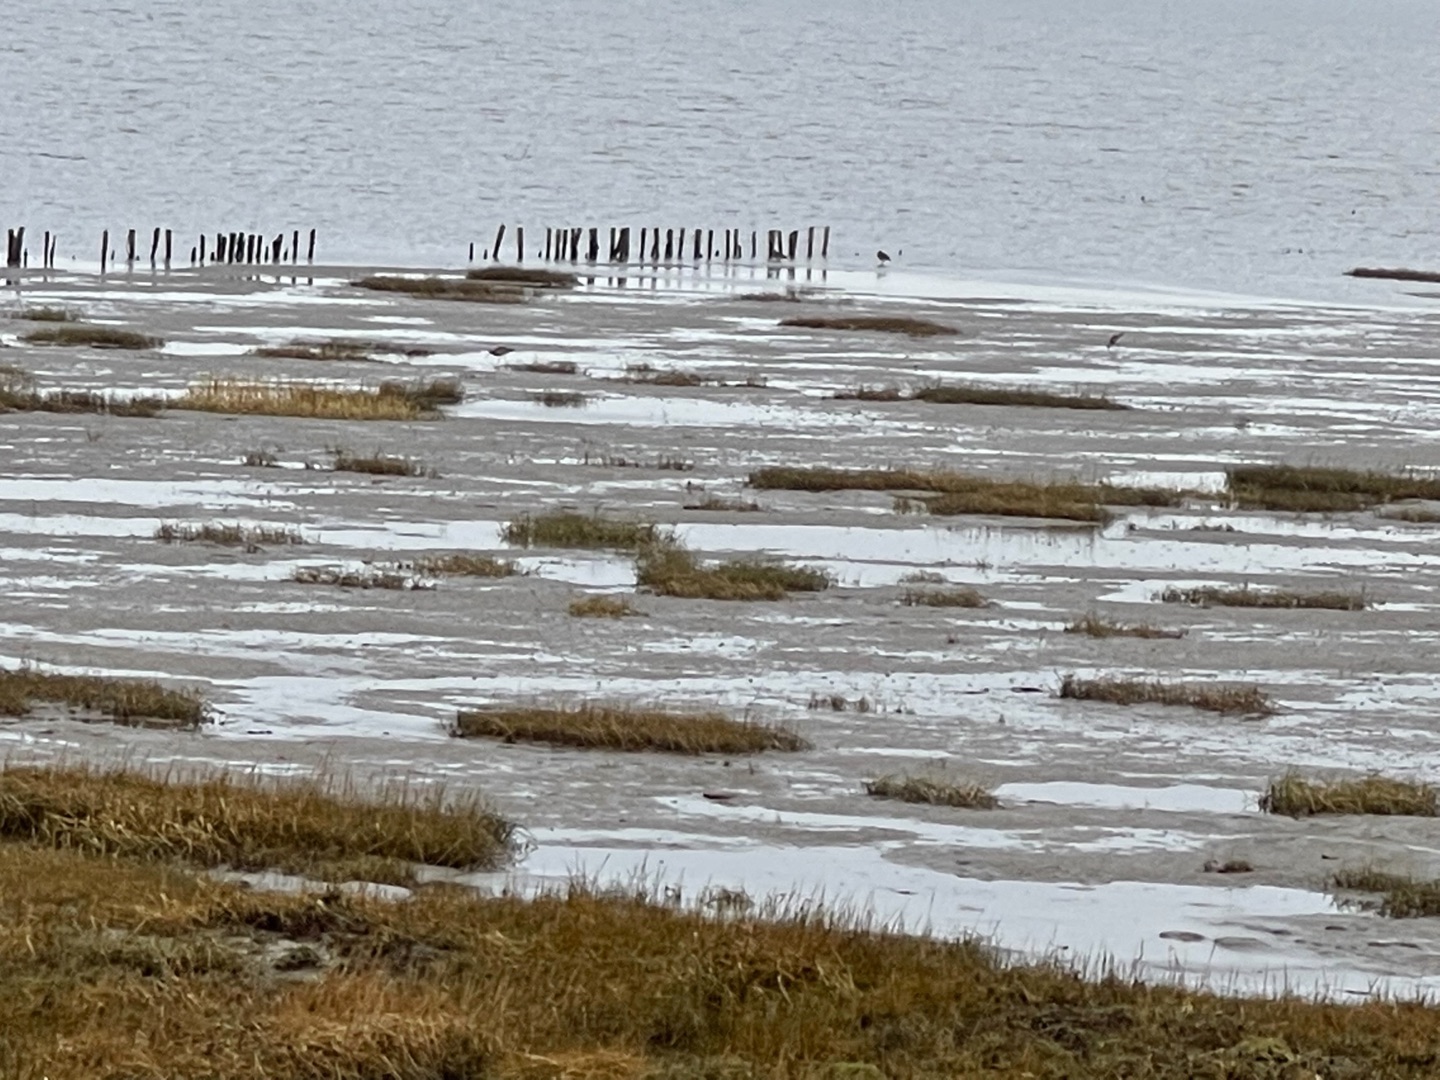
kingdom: Animalia
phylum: Chordata
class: Aves
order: Charadriiformes
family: Scolopacidae
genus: Numenius
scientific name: Numenius arquata
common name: Storspove
